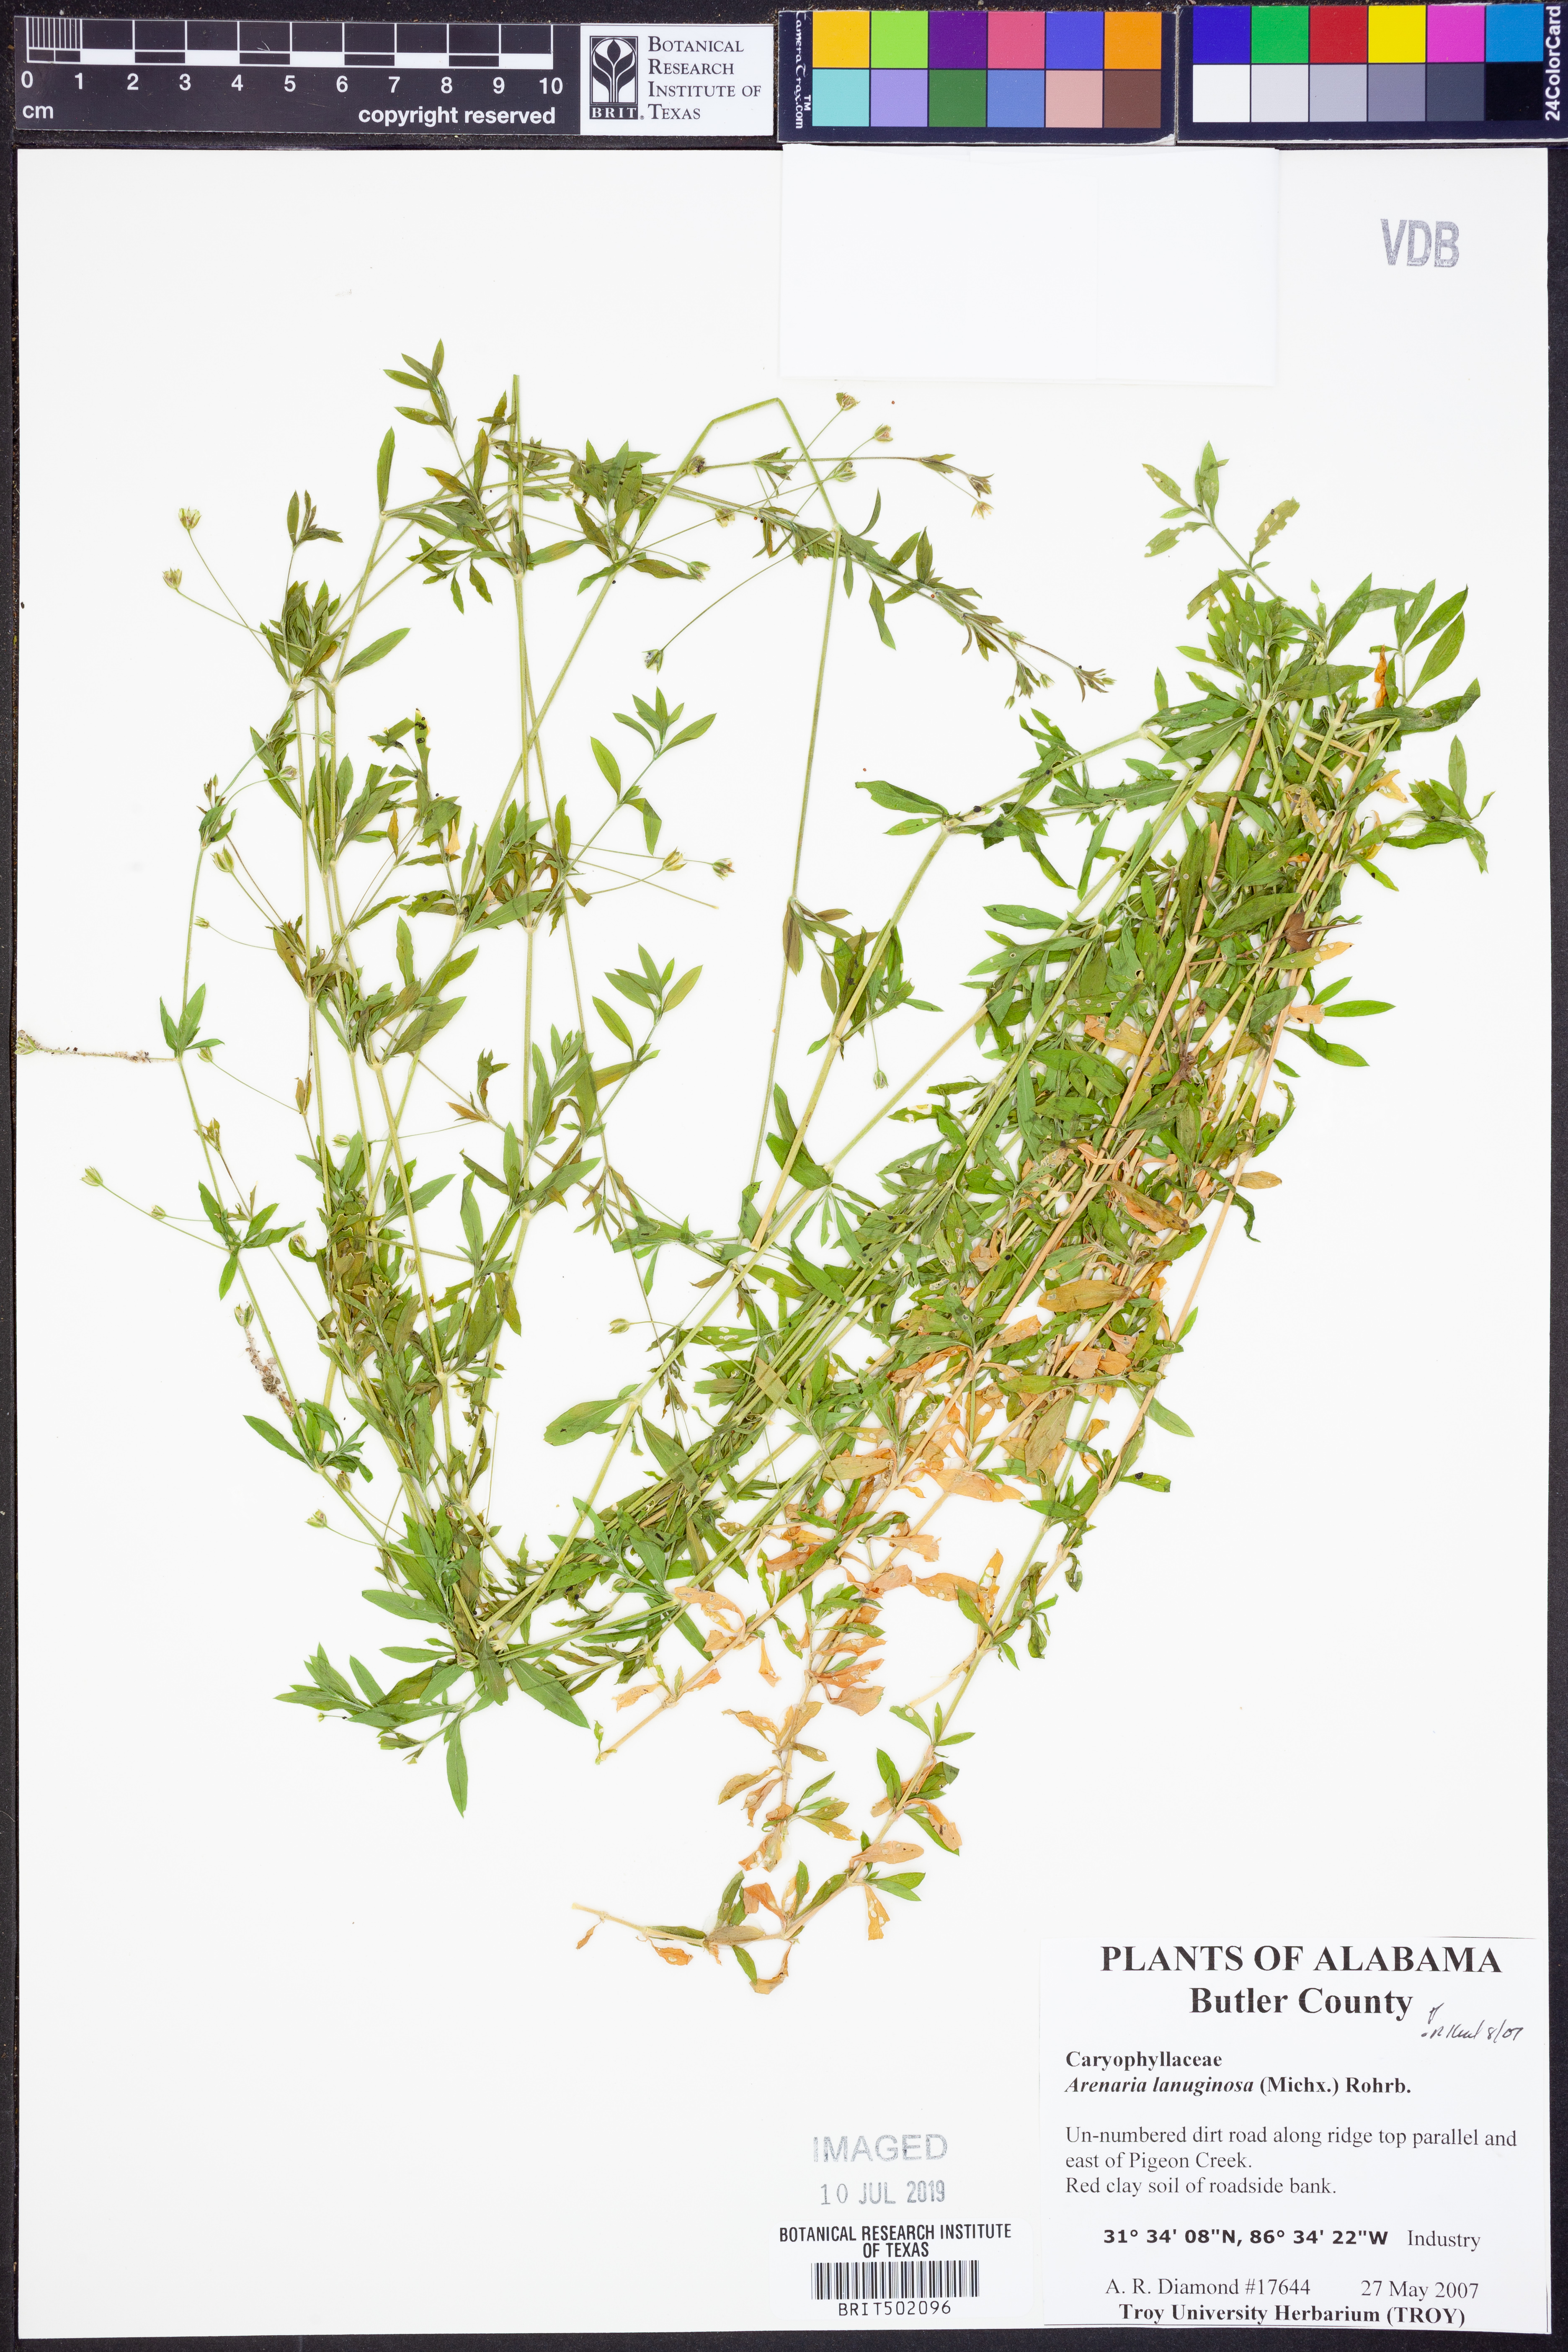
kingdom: Plantae
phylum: Tracheophyta
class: Magnoliopsida
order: Caryophyllales
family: Caryophyllaceae
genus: Arenaria
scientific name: Arenaria lanuginosa
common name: Spread sandwort
